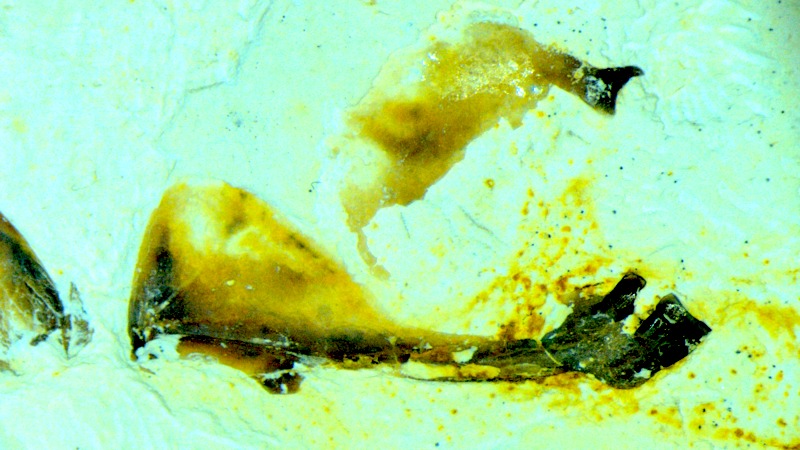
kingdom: Animalia
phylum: Chordata
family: Pycnodontidae
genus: Turbomesodon
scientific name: Turbomesodon relegans
